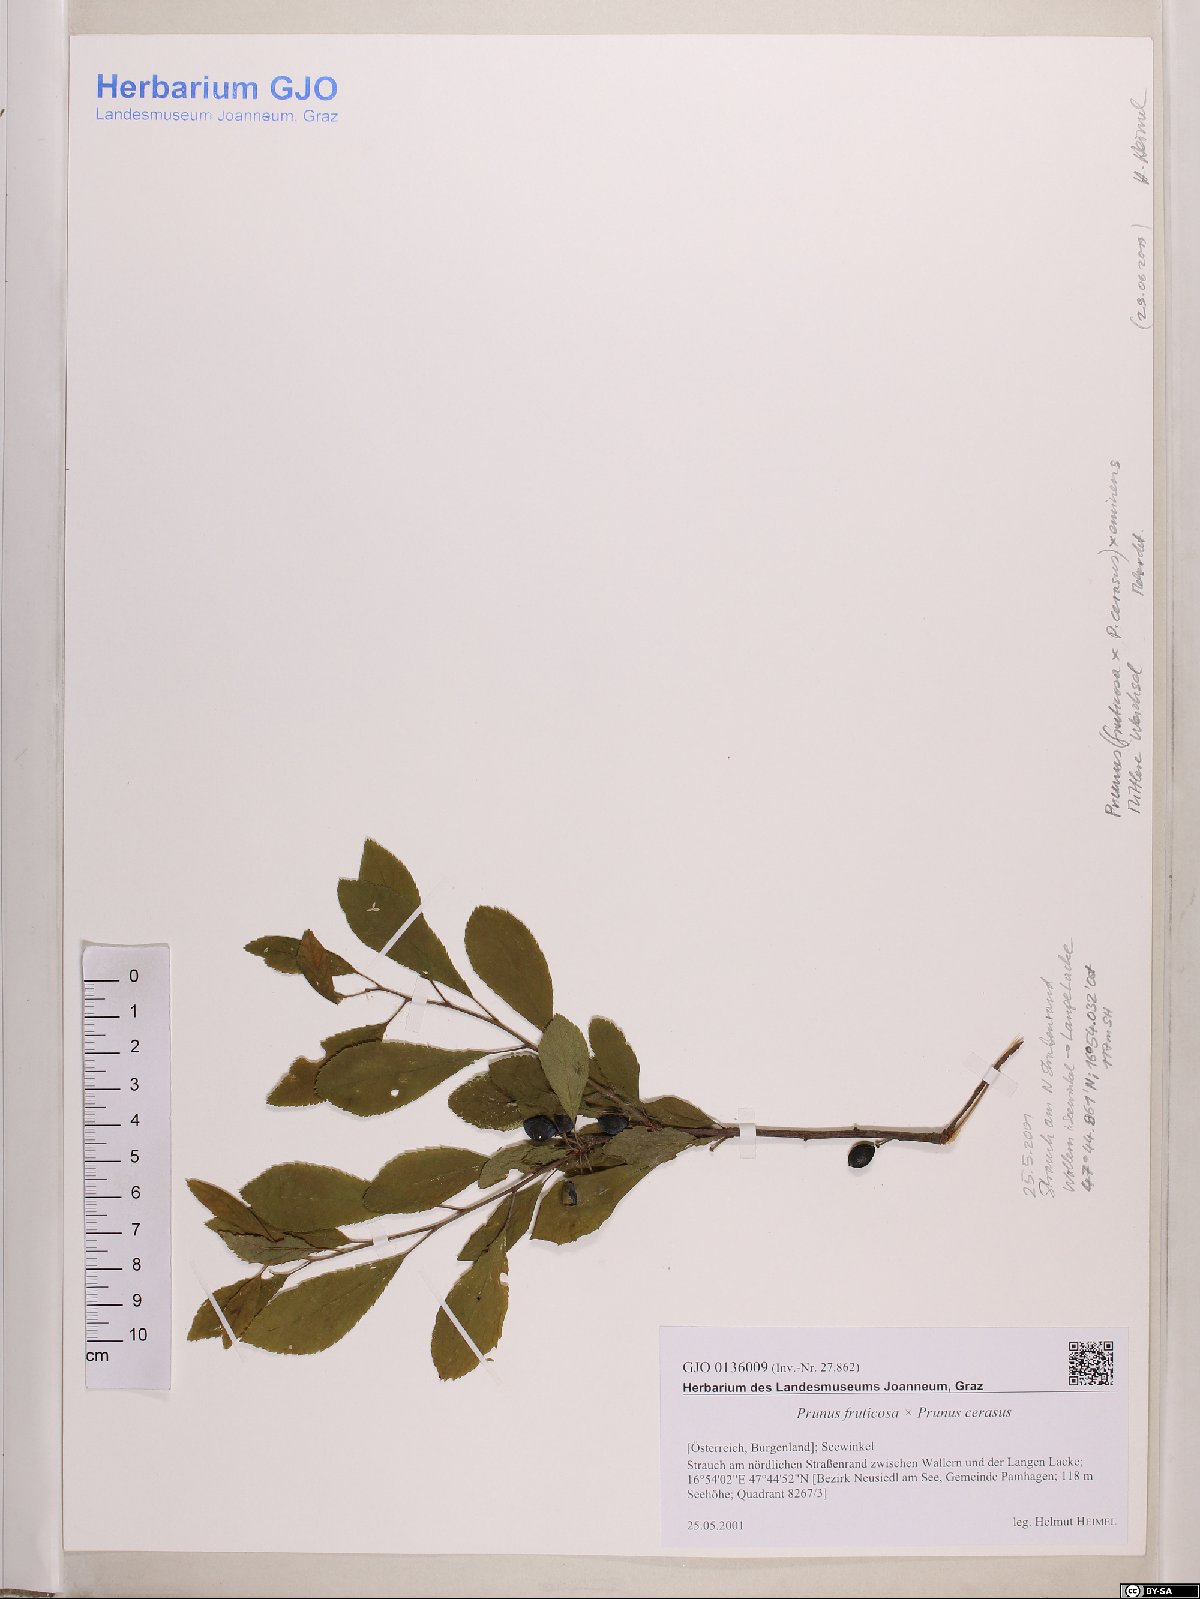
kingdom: Plantae
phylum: Tracheophyta
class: Magnoliopsida
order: Rosales
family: Rosaceae
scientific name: Rosaceae
